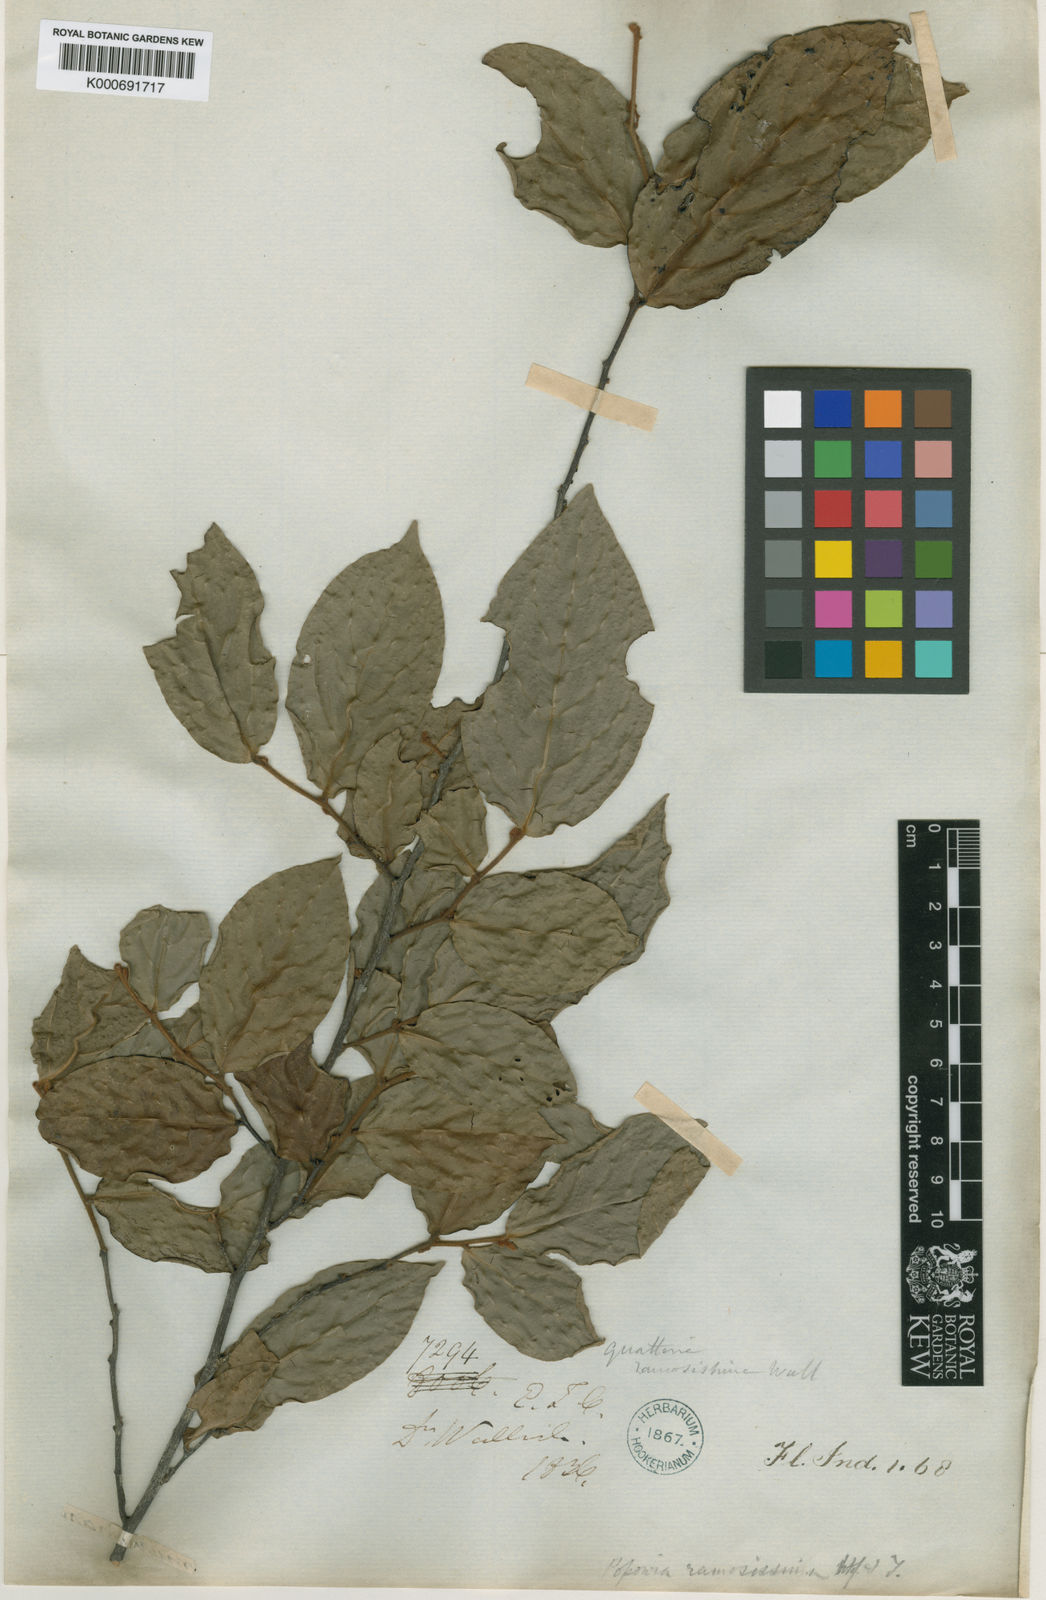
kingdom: Plantae
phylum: Tracheophyta
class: Magnoliopsida
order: Magnoliales
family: Annonaceae
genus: Popowia
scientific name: Popowia
